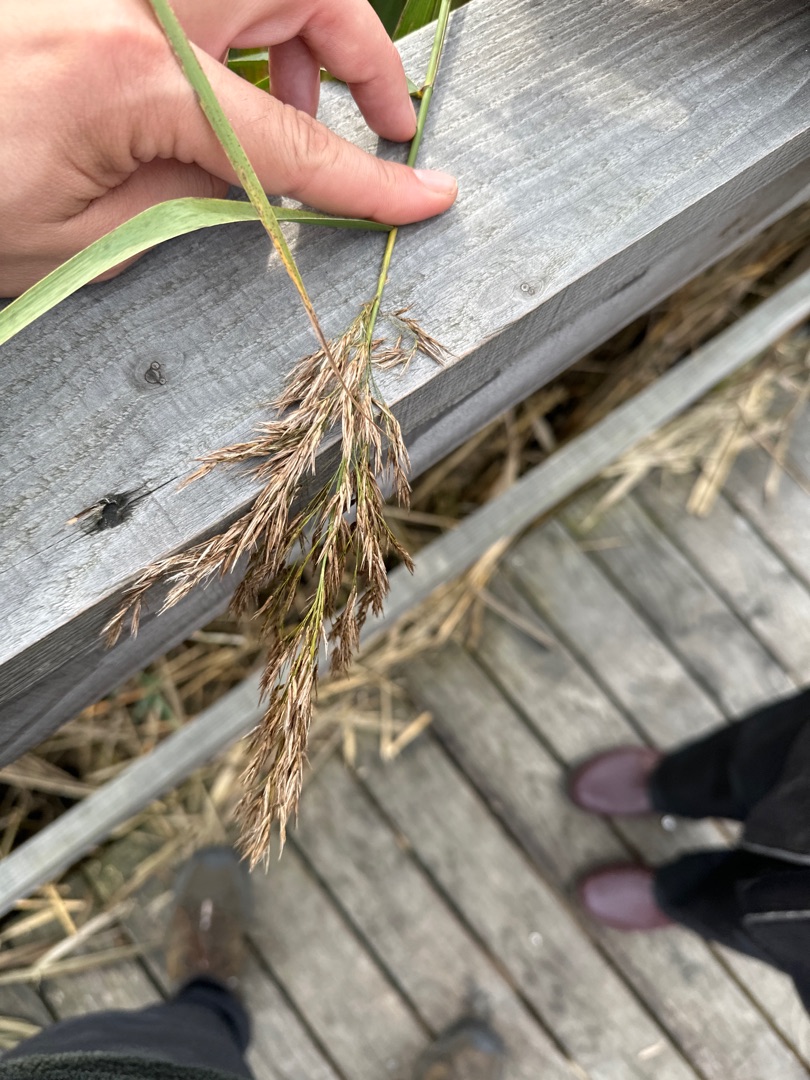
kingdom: Plantae
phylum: Tracheophyta
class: Liliopsida
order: Poales
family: Poaceae
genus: Phragmites
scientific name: Phragmites australis
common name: Tagrør
